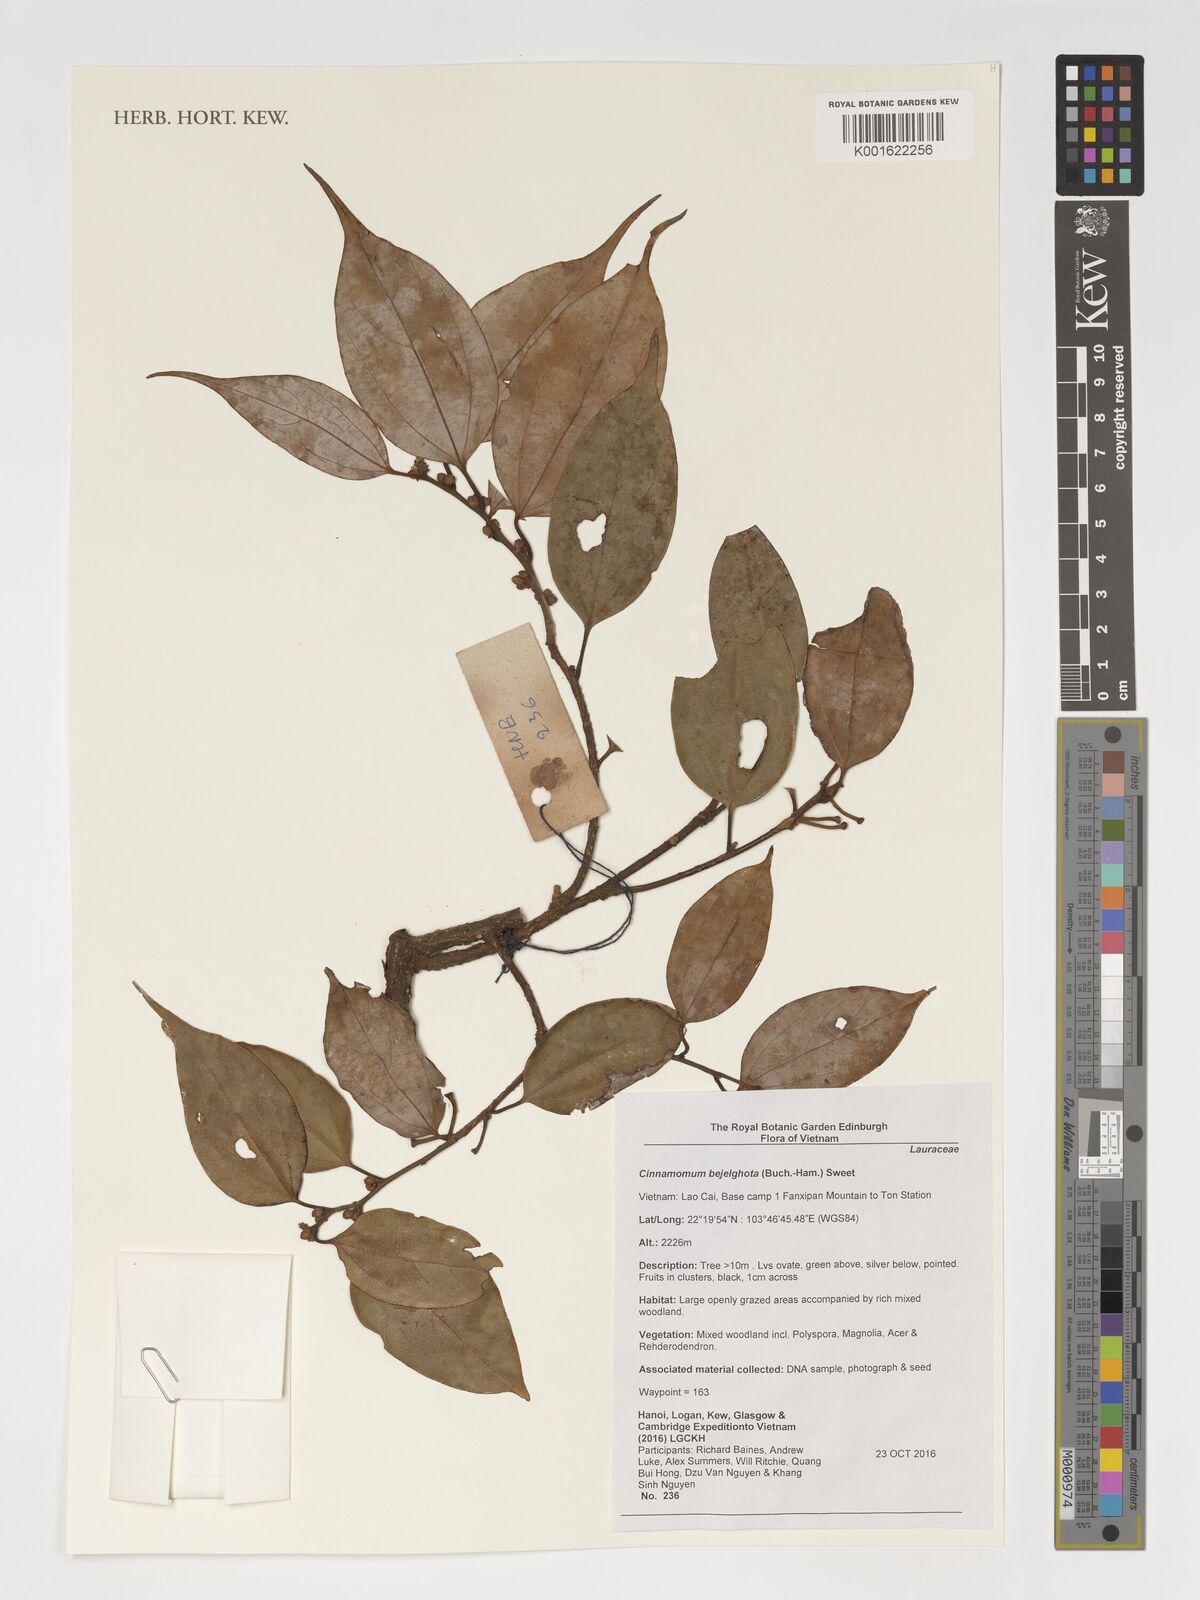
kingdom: Plantae
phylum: Tracheophyta
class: Magnoliopsida
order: Laurales
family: Lauraceae
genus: Cinnamomum
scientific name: Cinnamomum
